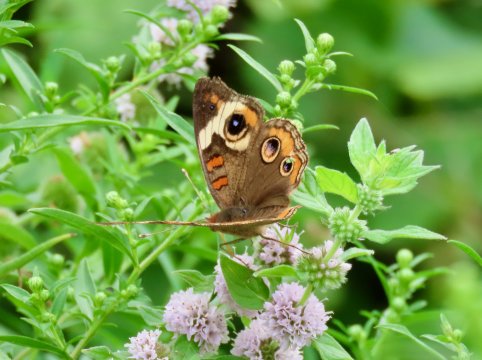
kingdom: Animalia
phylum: Arthropoda
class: Insecta
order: Lepidoptera
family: Nymphalidae
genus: Junonia
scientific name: Junonia coenia
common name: Common Buckeye
